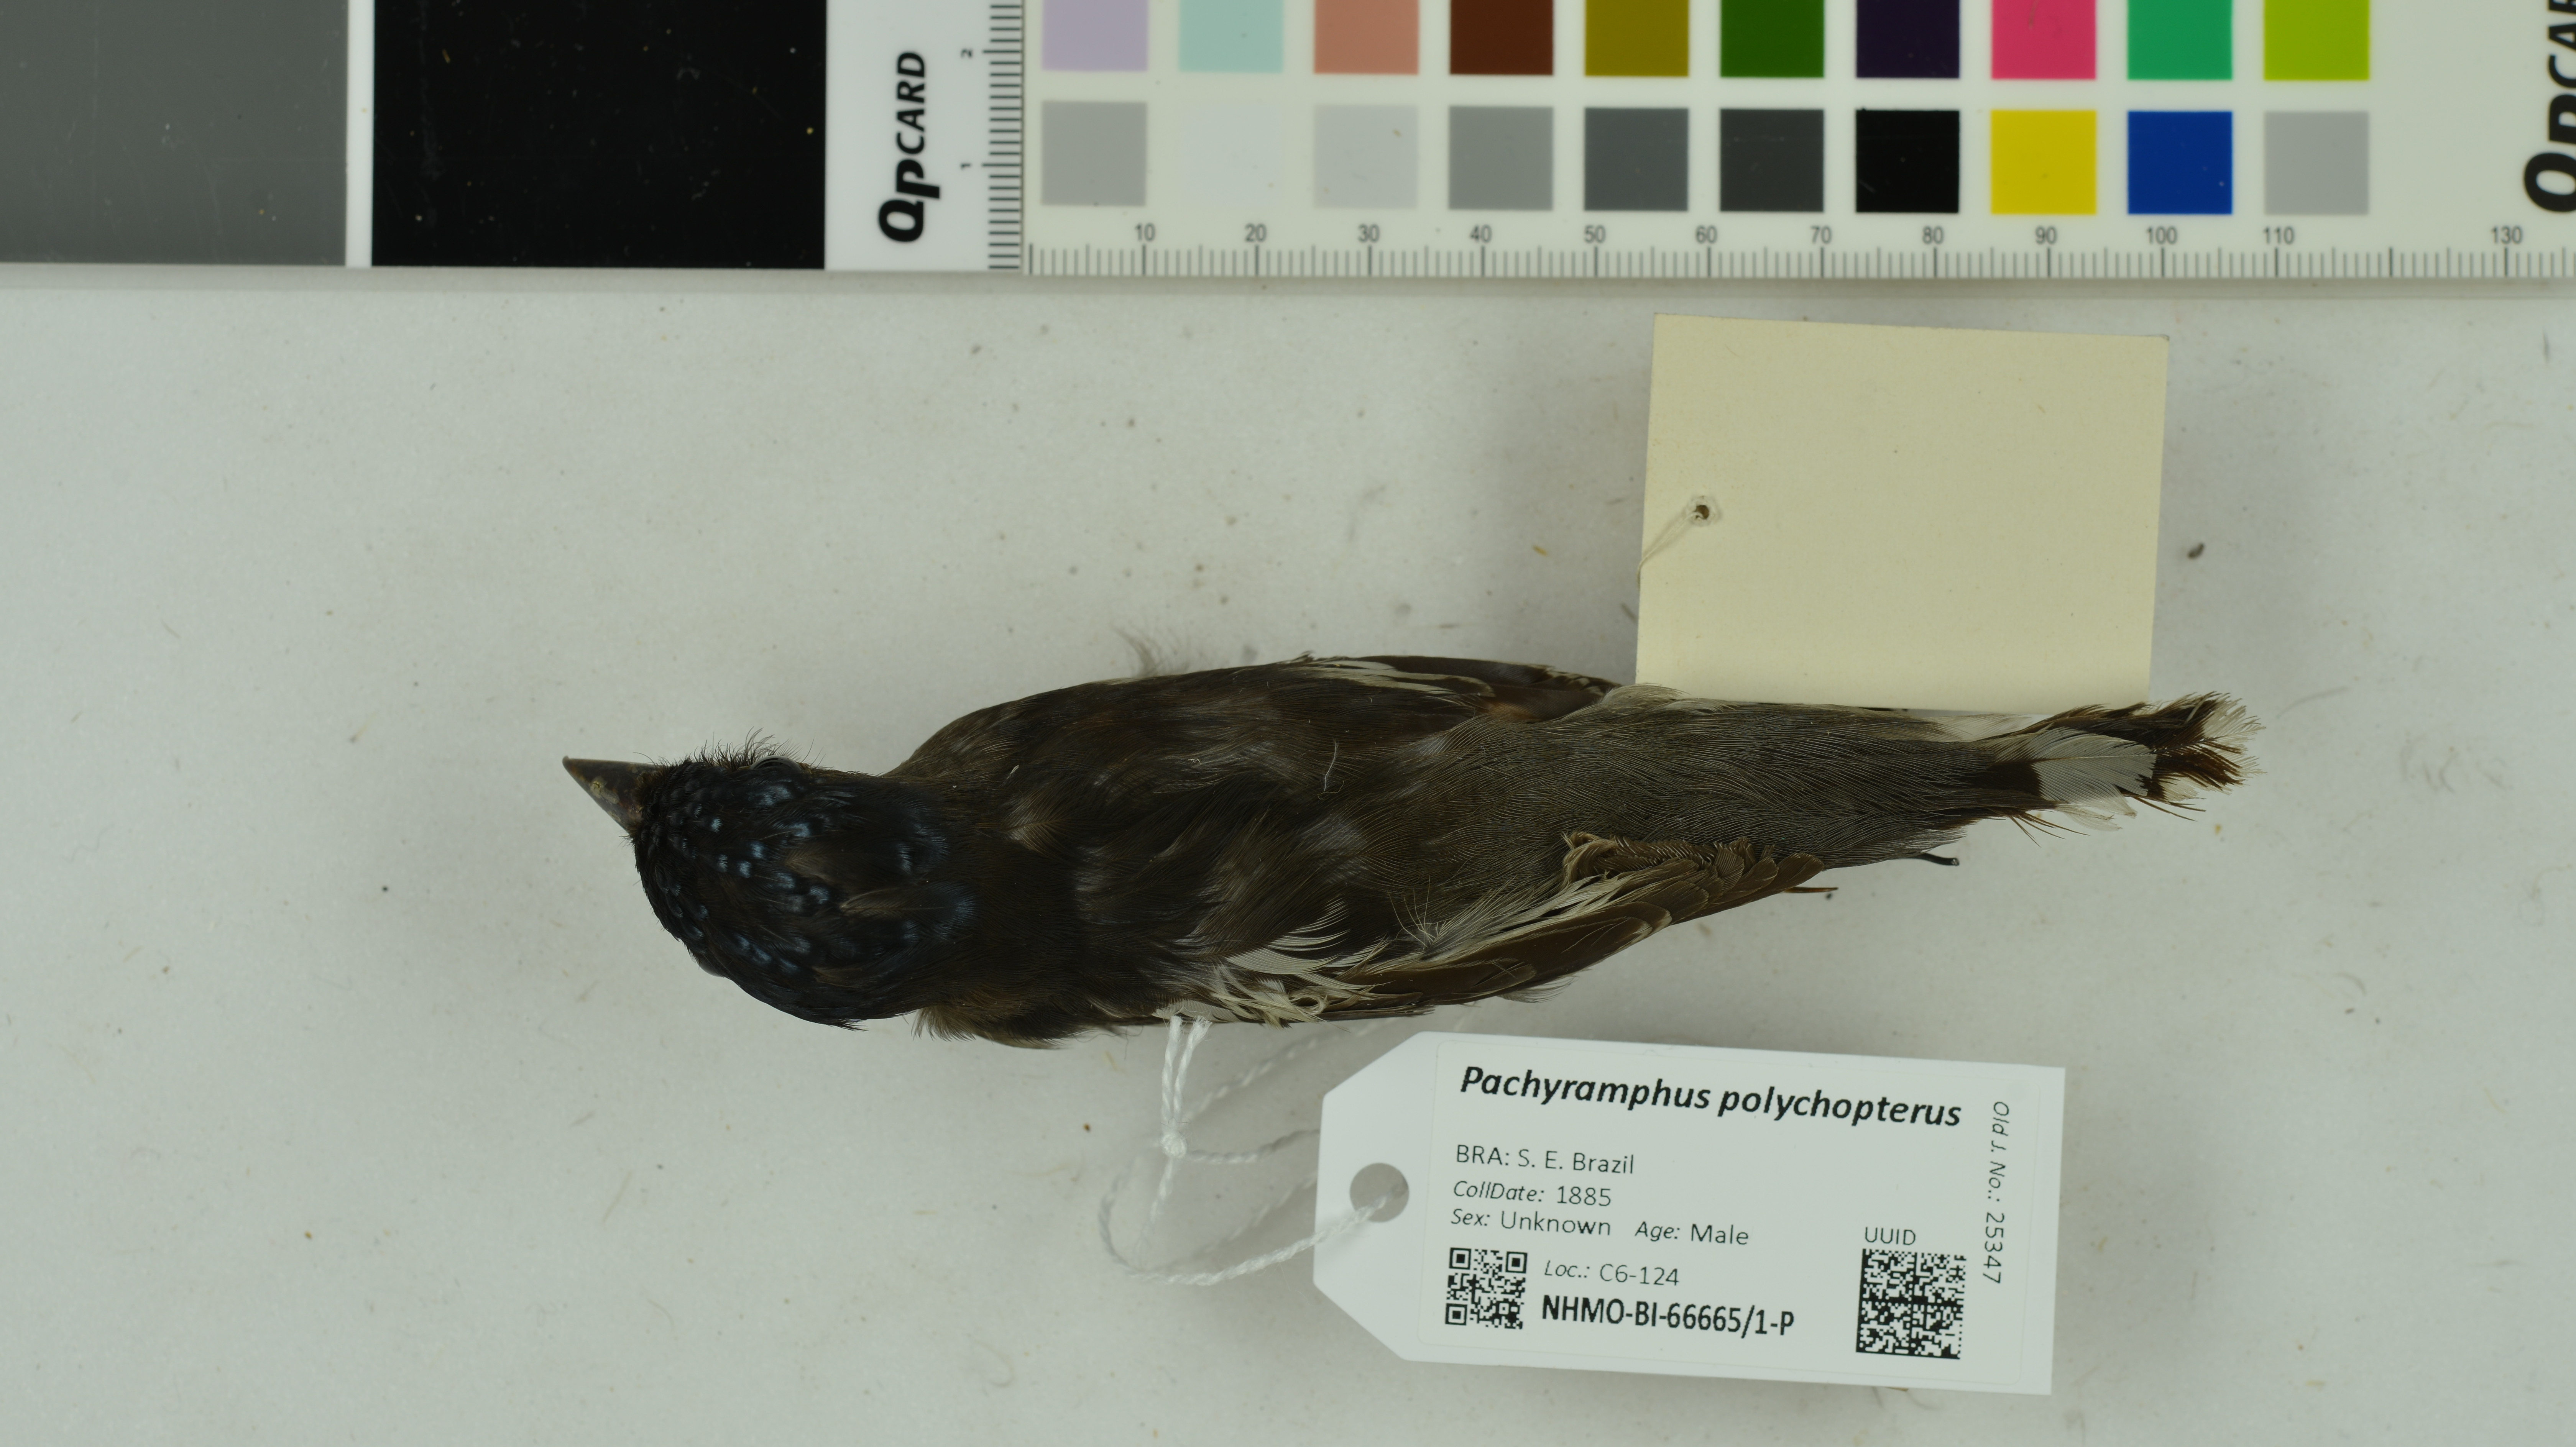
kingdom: Animalia
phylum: Chordata
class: Aves
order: Passeriformes
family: Cotingidae
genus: Pachyramphus
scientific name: Pachyramphus polychopterus
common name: White-winged becard
